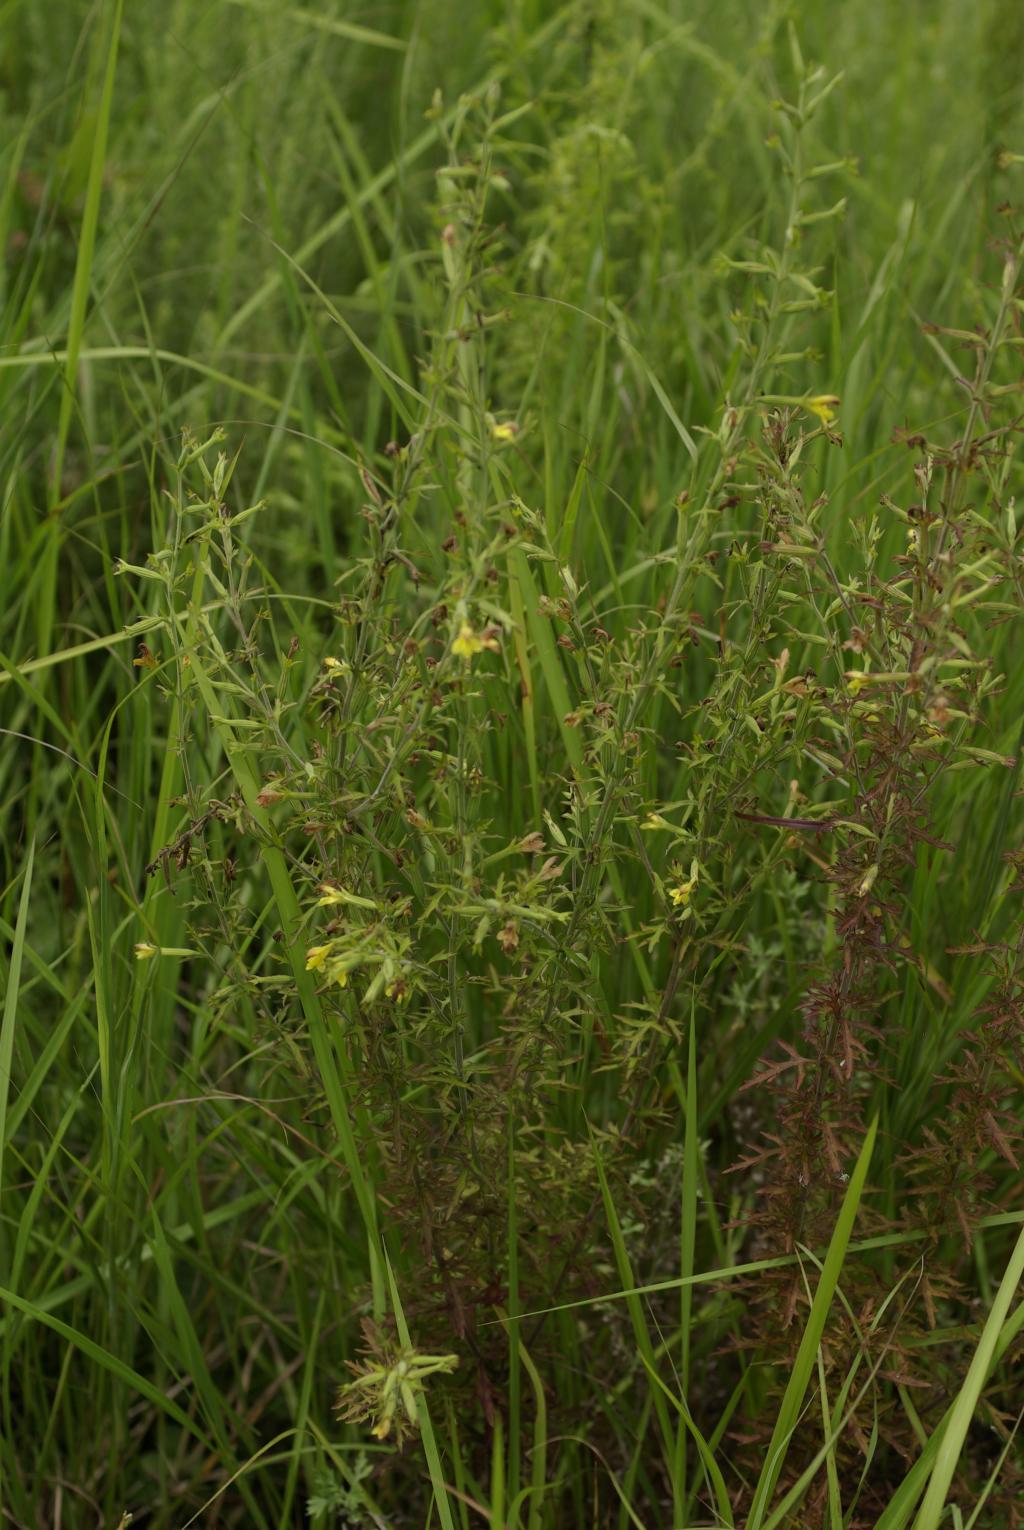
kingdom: Plantae
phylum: Tracheophyta
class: Magnoliopsida
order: Lamiales
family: Orobanchaceae
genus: Siphonostegia
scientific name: Siphonostegia chinensis
